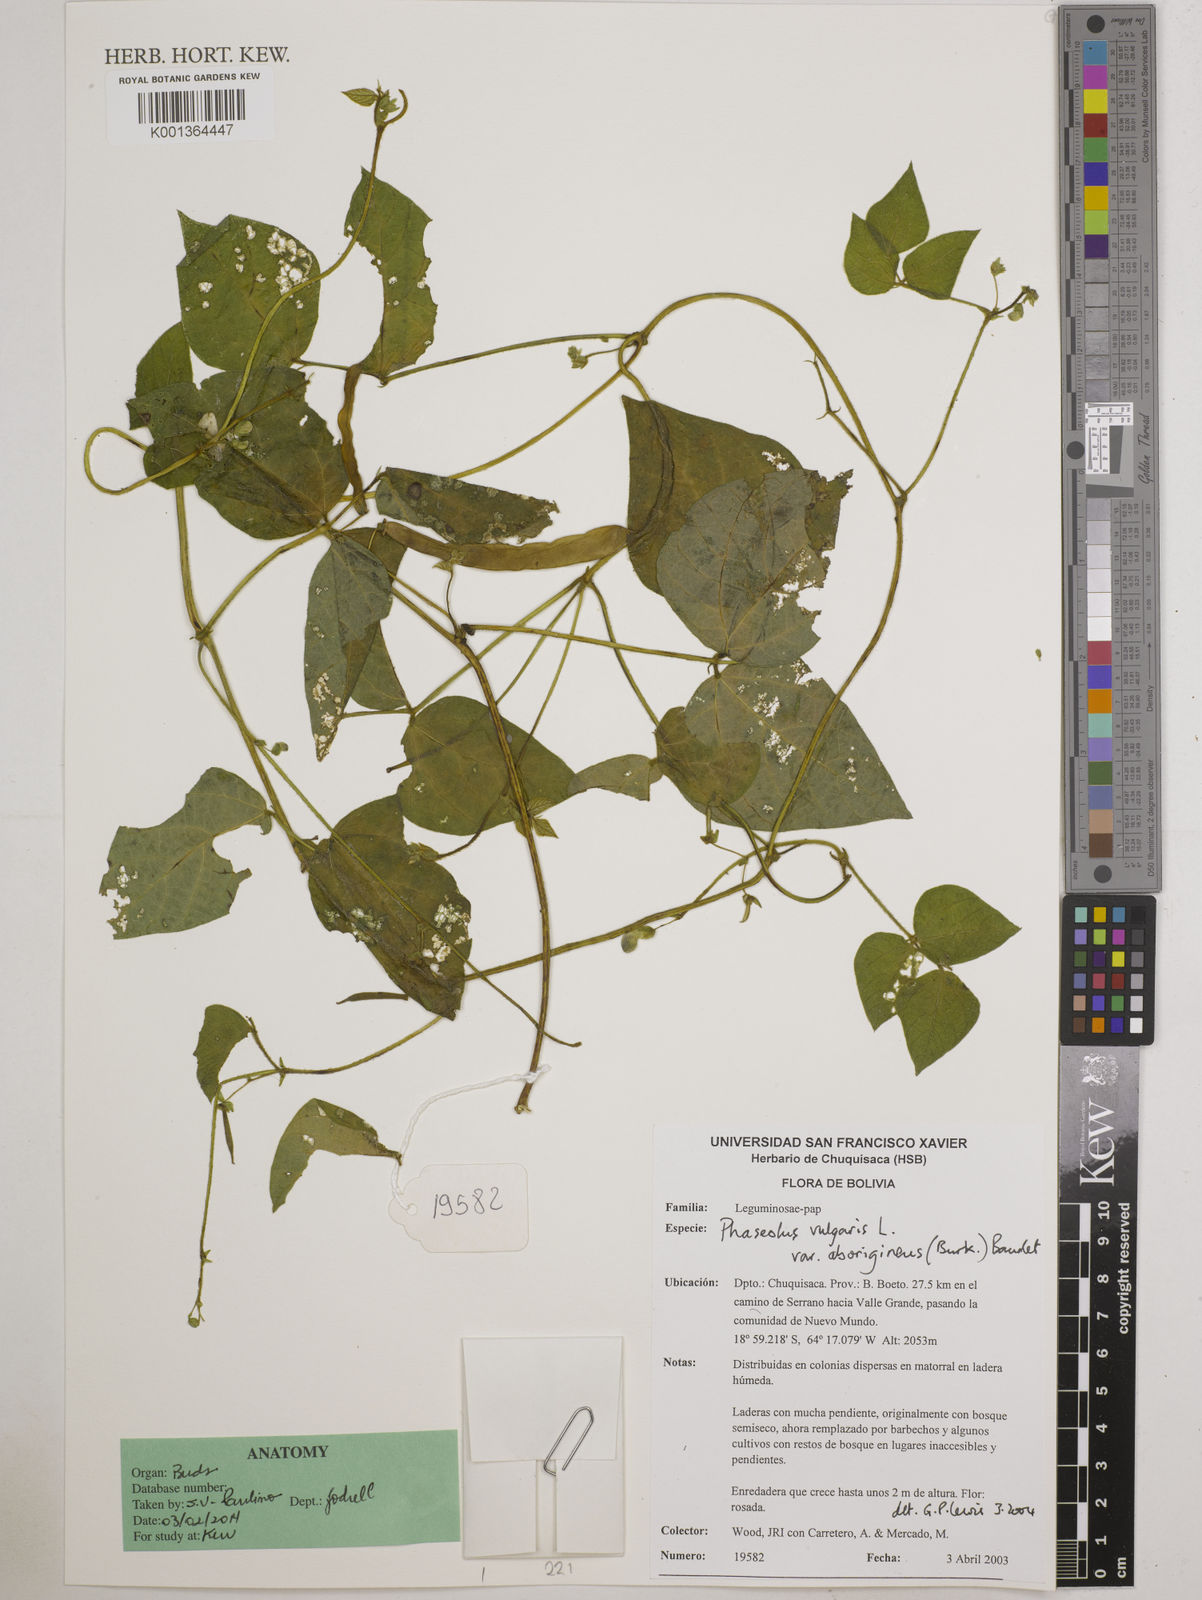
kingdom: Plantae
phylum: Tracheophyta
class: Magnoliopsida
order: Fabales
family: Fabaceae
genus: Phaseolus
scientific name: Phaseolus vulgaris
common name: Bean
